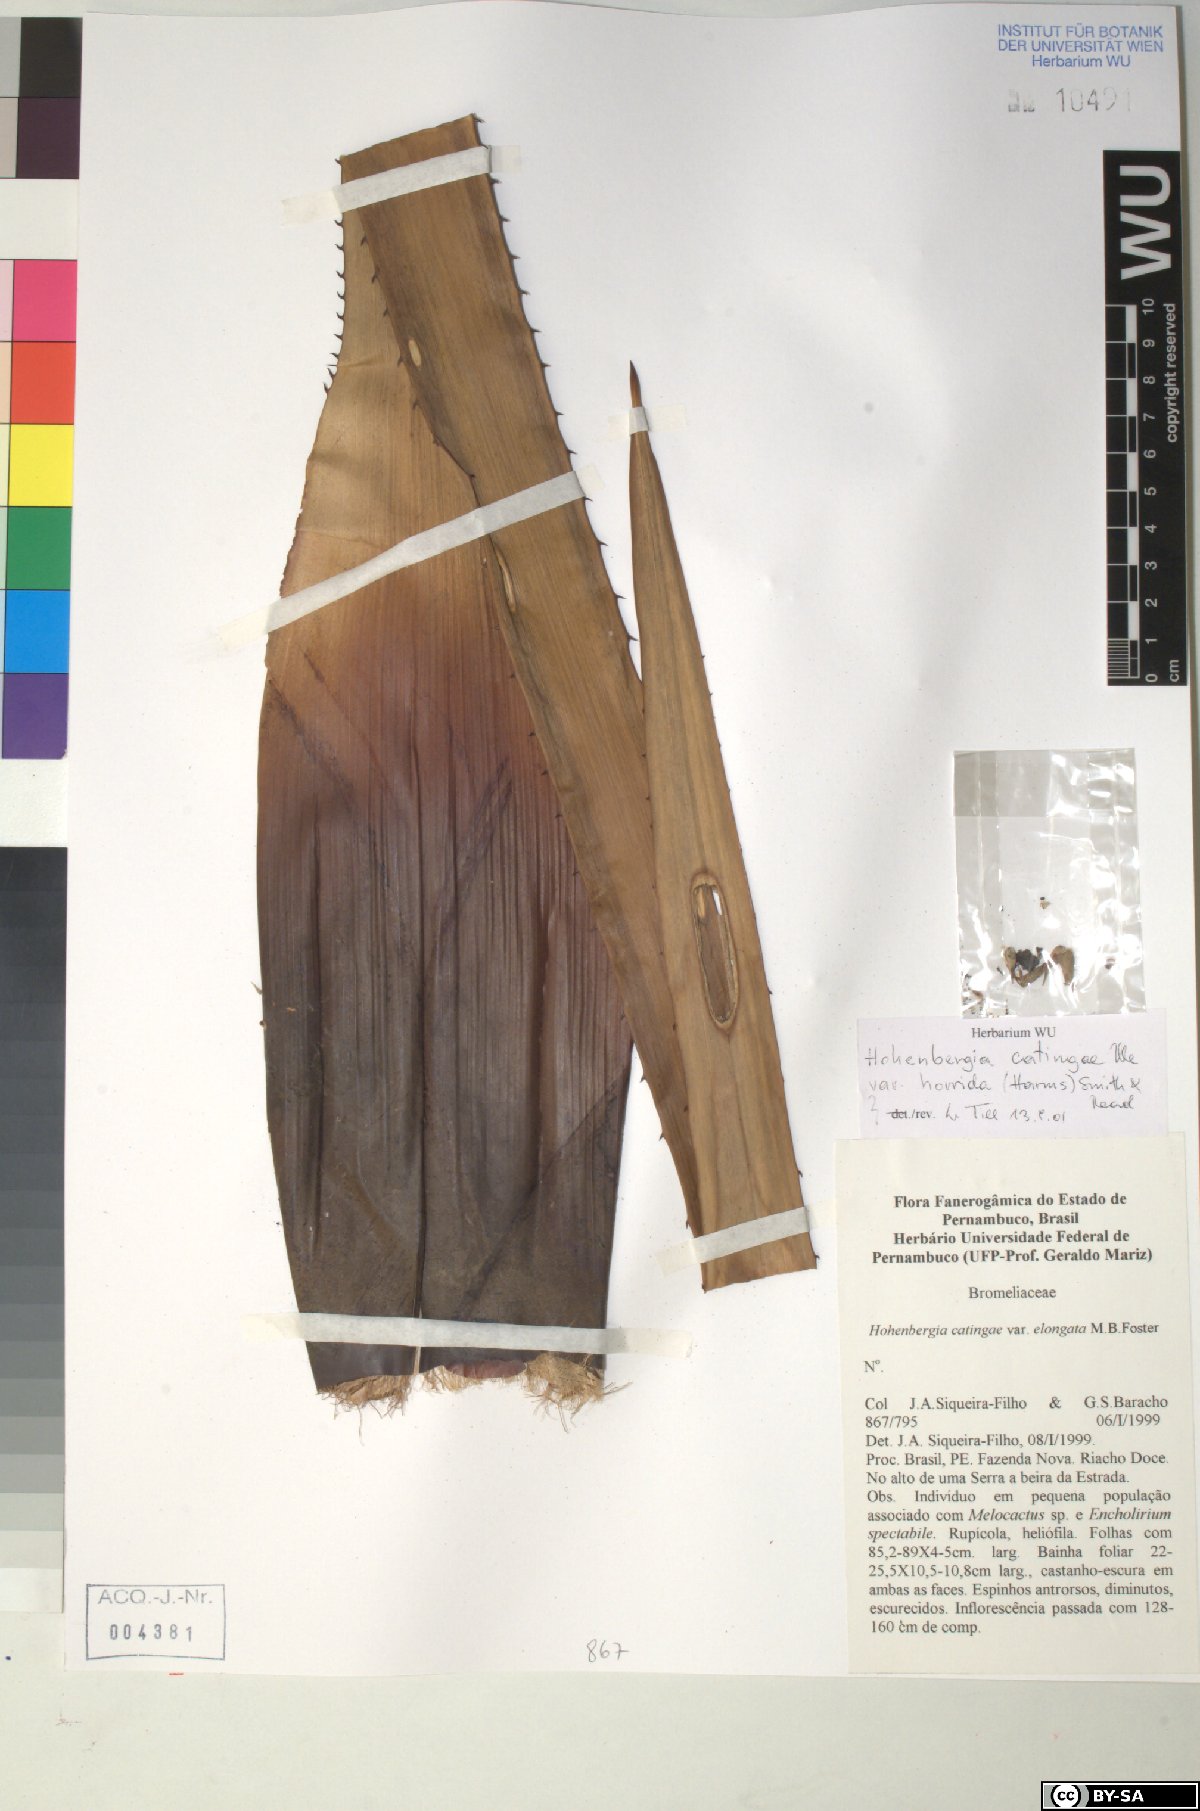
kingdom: Plantae
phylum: Tracheophyta
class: Liliopsida
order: Poales
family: Bromeliaceae
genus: Hohenbergia
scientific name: Hohenbergia catingae
